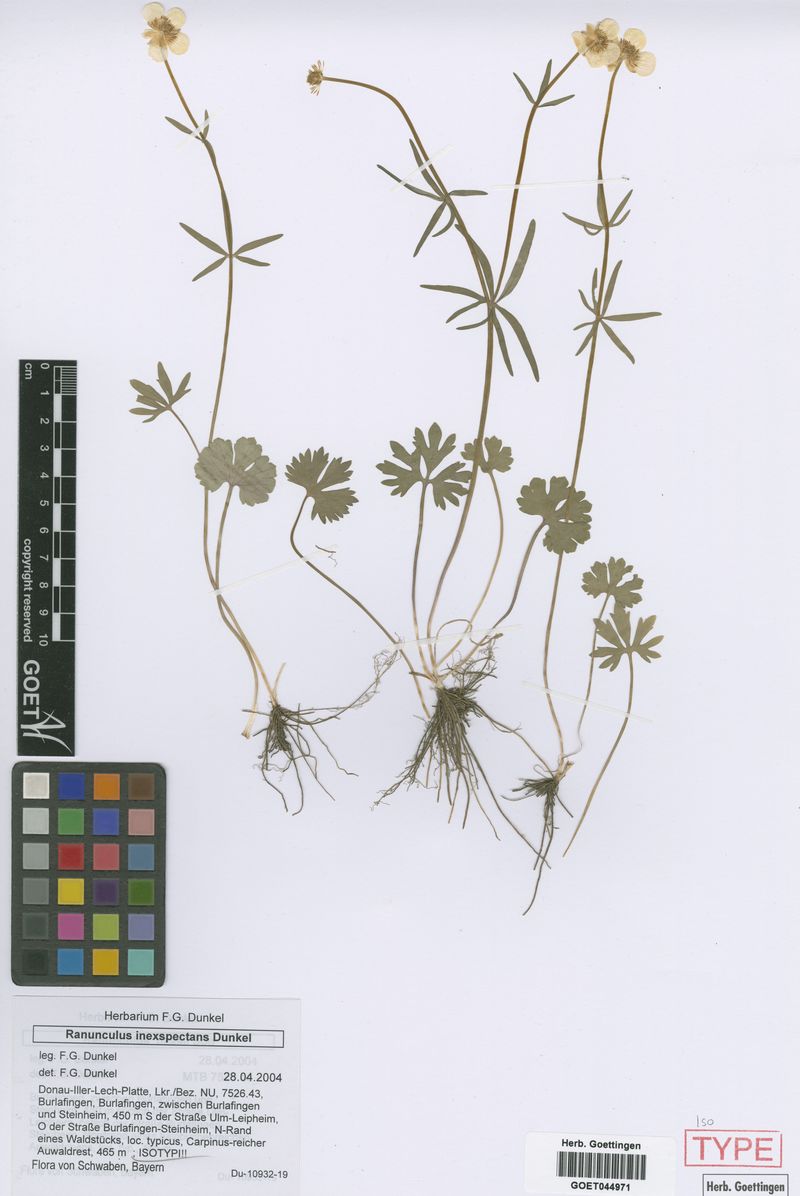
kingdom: Plantae
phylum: Tracheophyta
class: Magnoliopsida
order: Ranunculales
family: Ranunculaceae
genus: Ranunculus
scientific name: Ranunculus inexspectans
